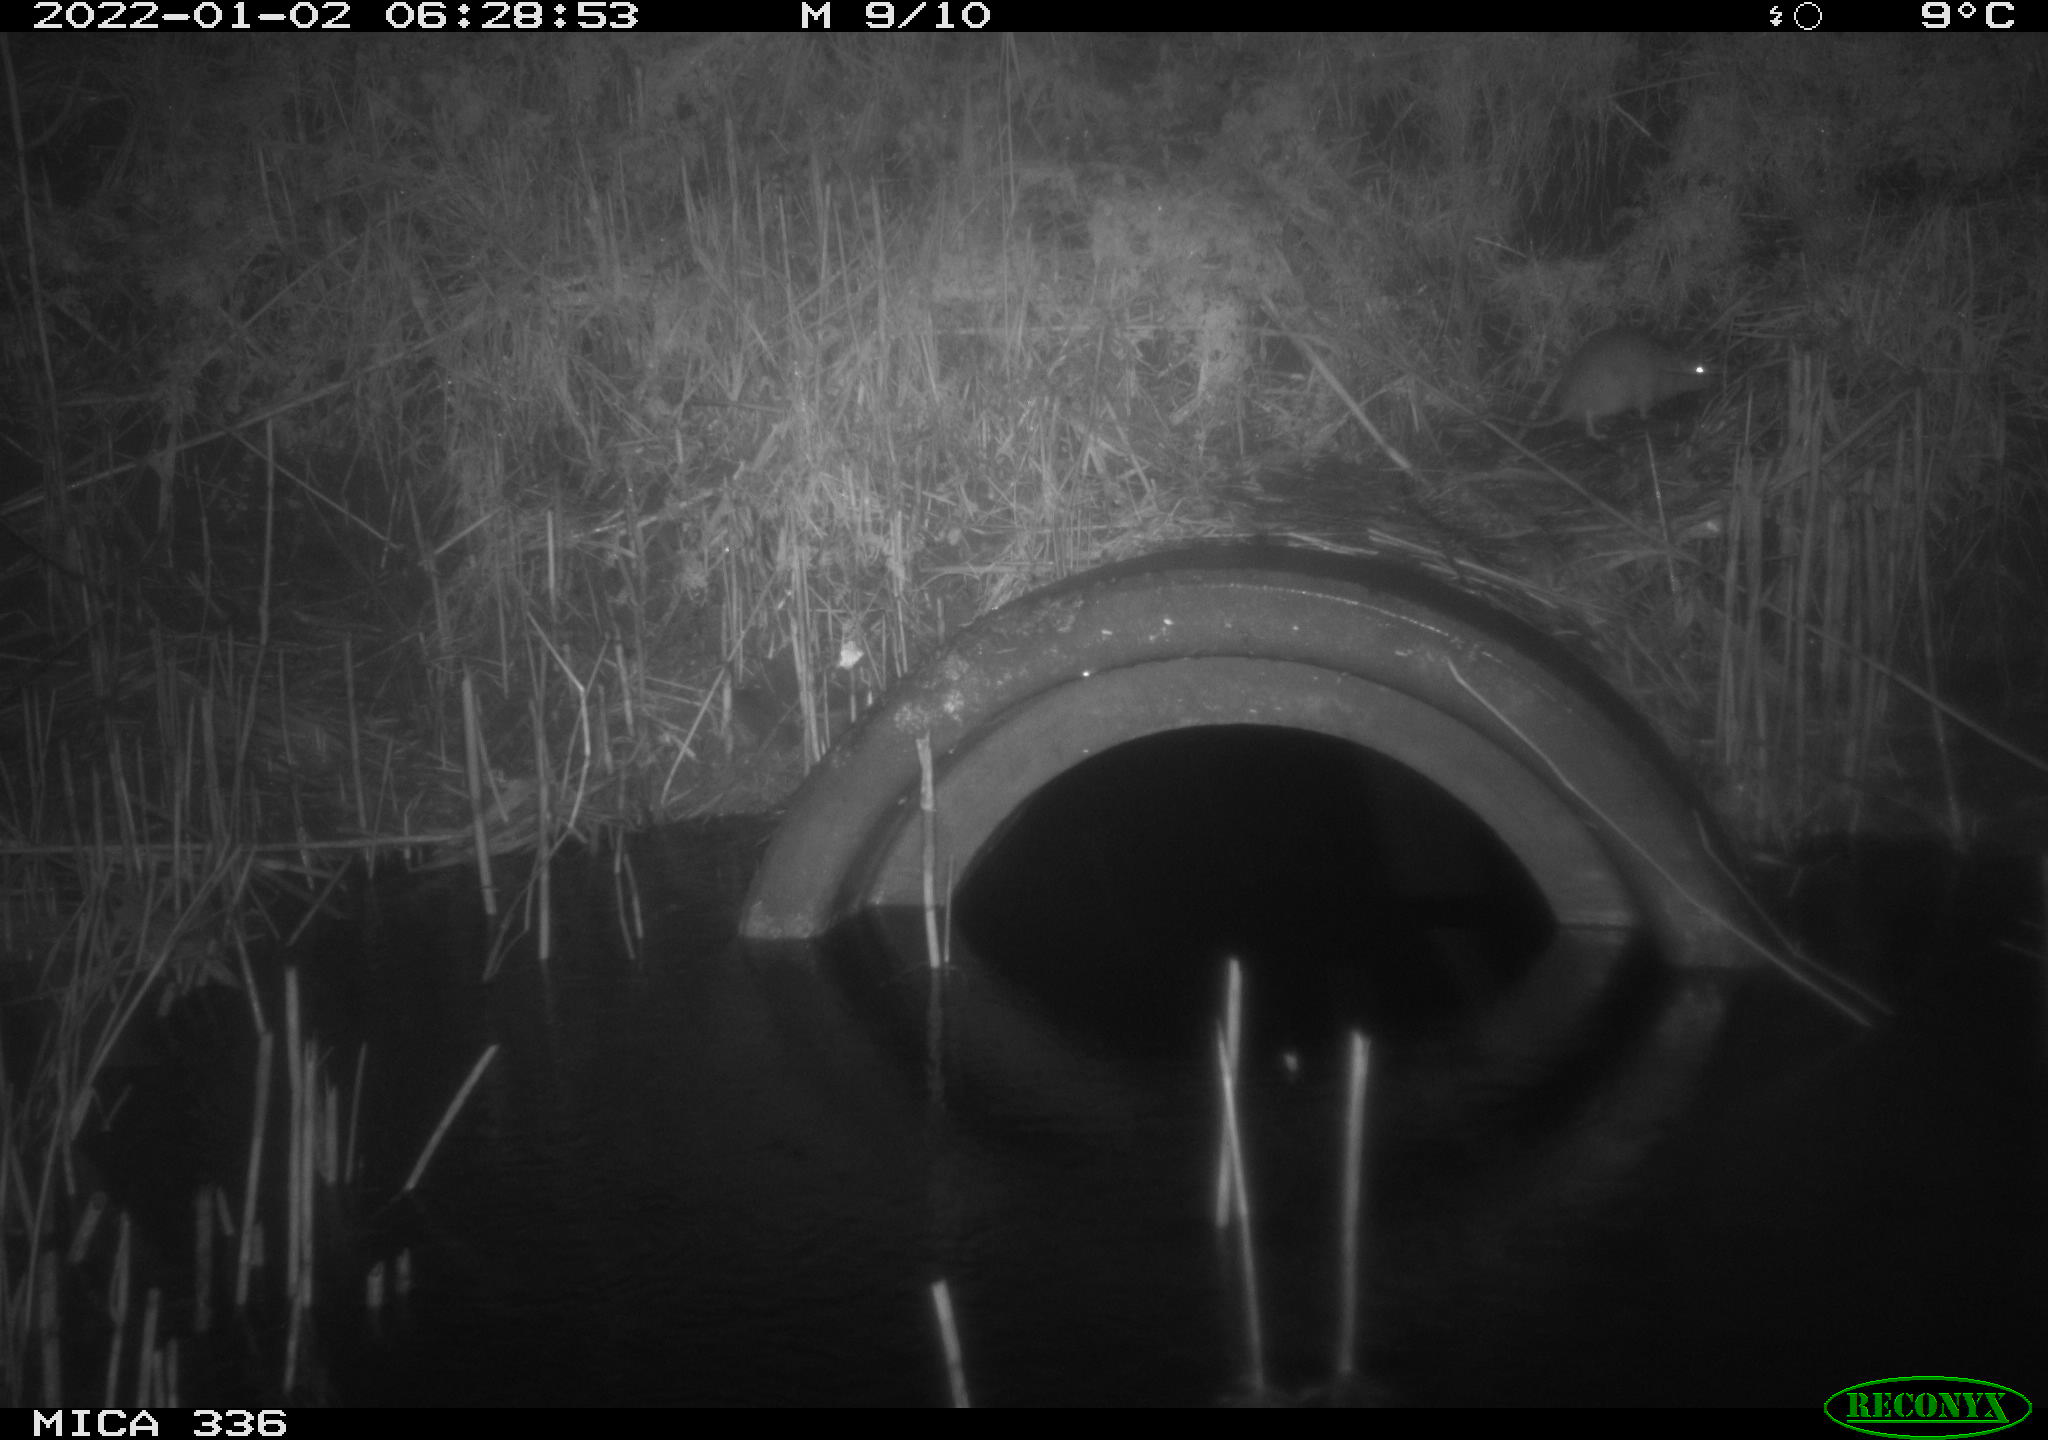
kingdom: Animalia
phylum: Chordata
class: Mammalia
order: Rodentia
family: Muridae
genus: Rattus
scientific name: Rattus norvegicus
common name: Brown rat
